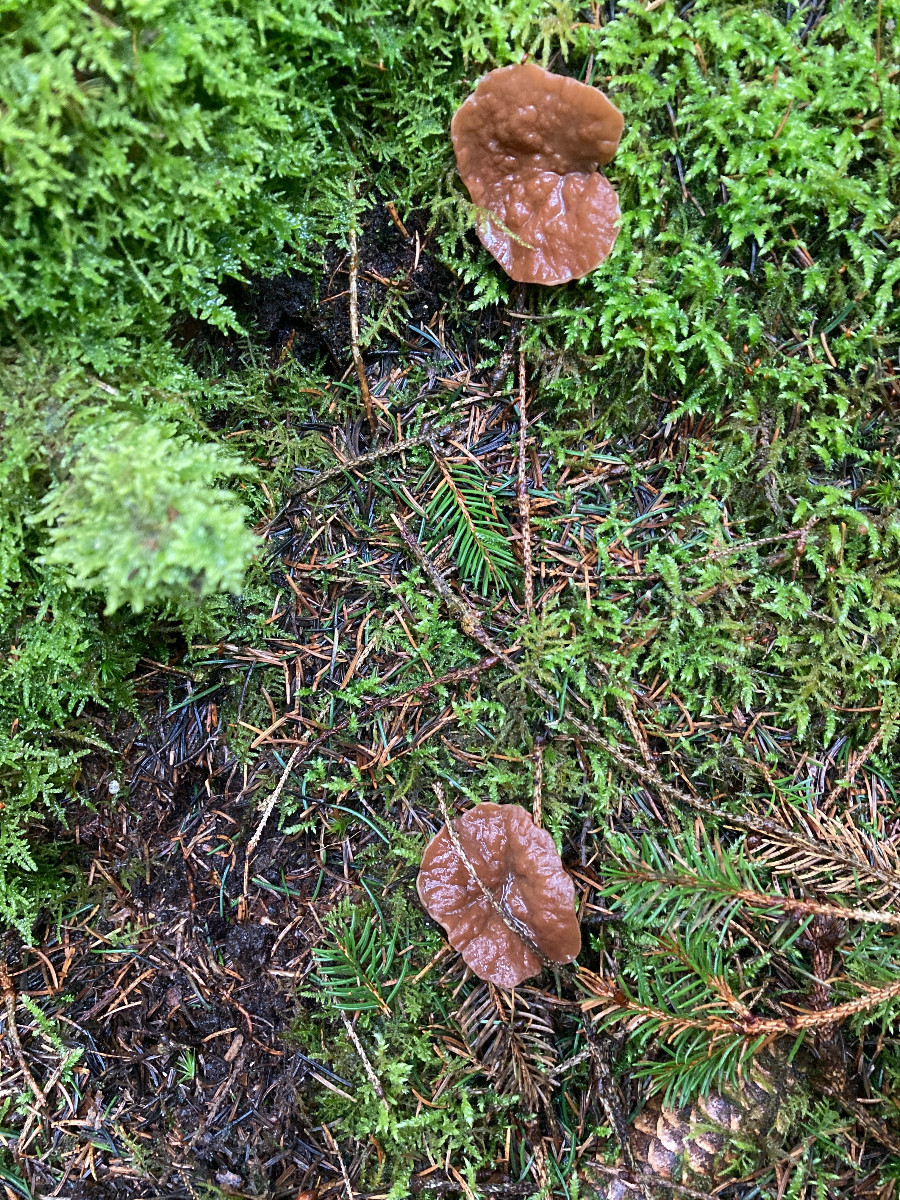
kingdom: Fungi
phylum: Ascomycota
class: Pezizomycetes
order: Pezizales
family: Discinaceae
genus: Discina
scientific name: Discina ancilis
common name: udbredt stenmorkel
